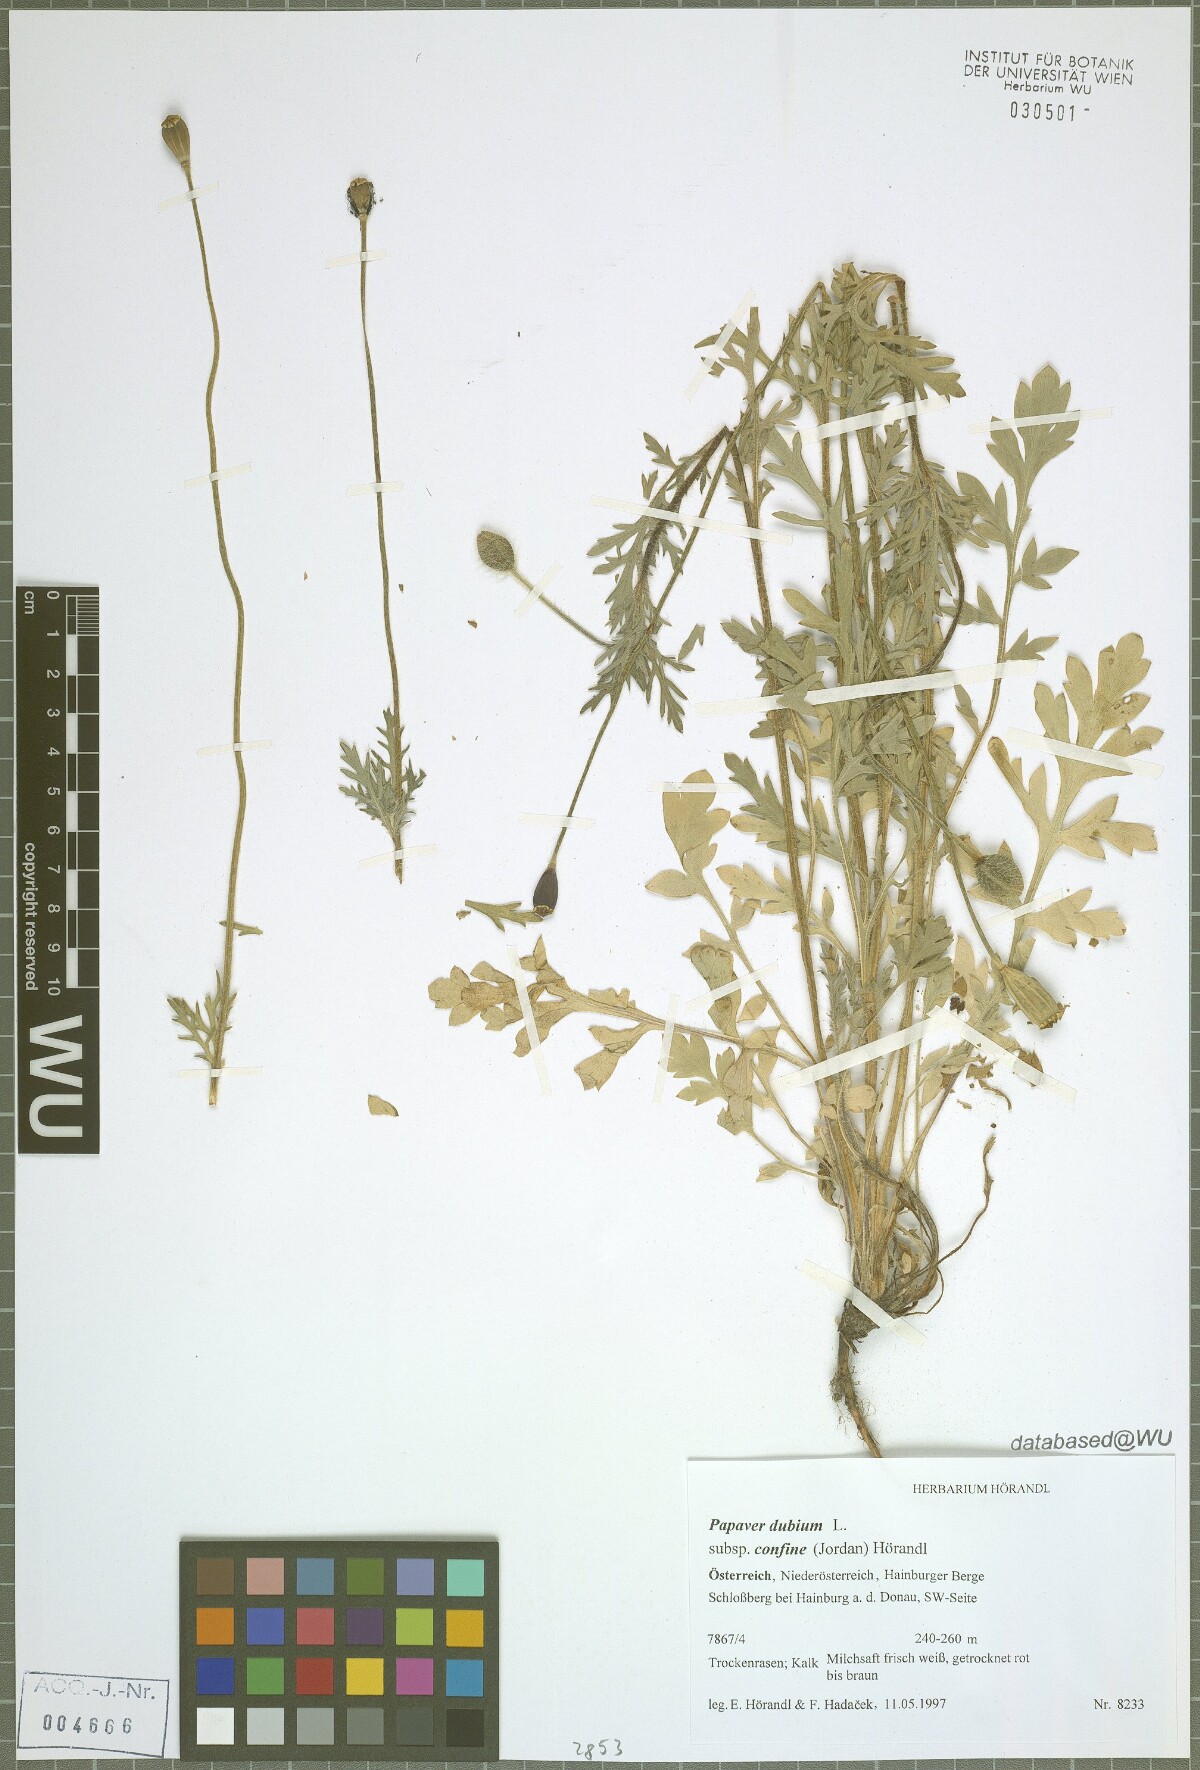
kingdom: Plantae
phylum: Tracheophyta
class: Magnoliopsida
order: Ranunculales
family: Papaveraceae
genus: Papaver
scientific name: Papaver confine
